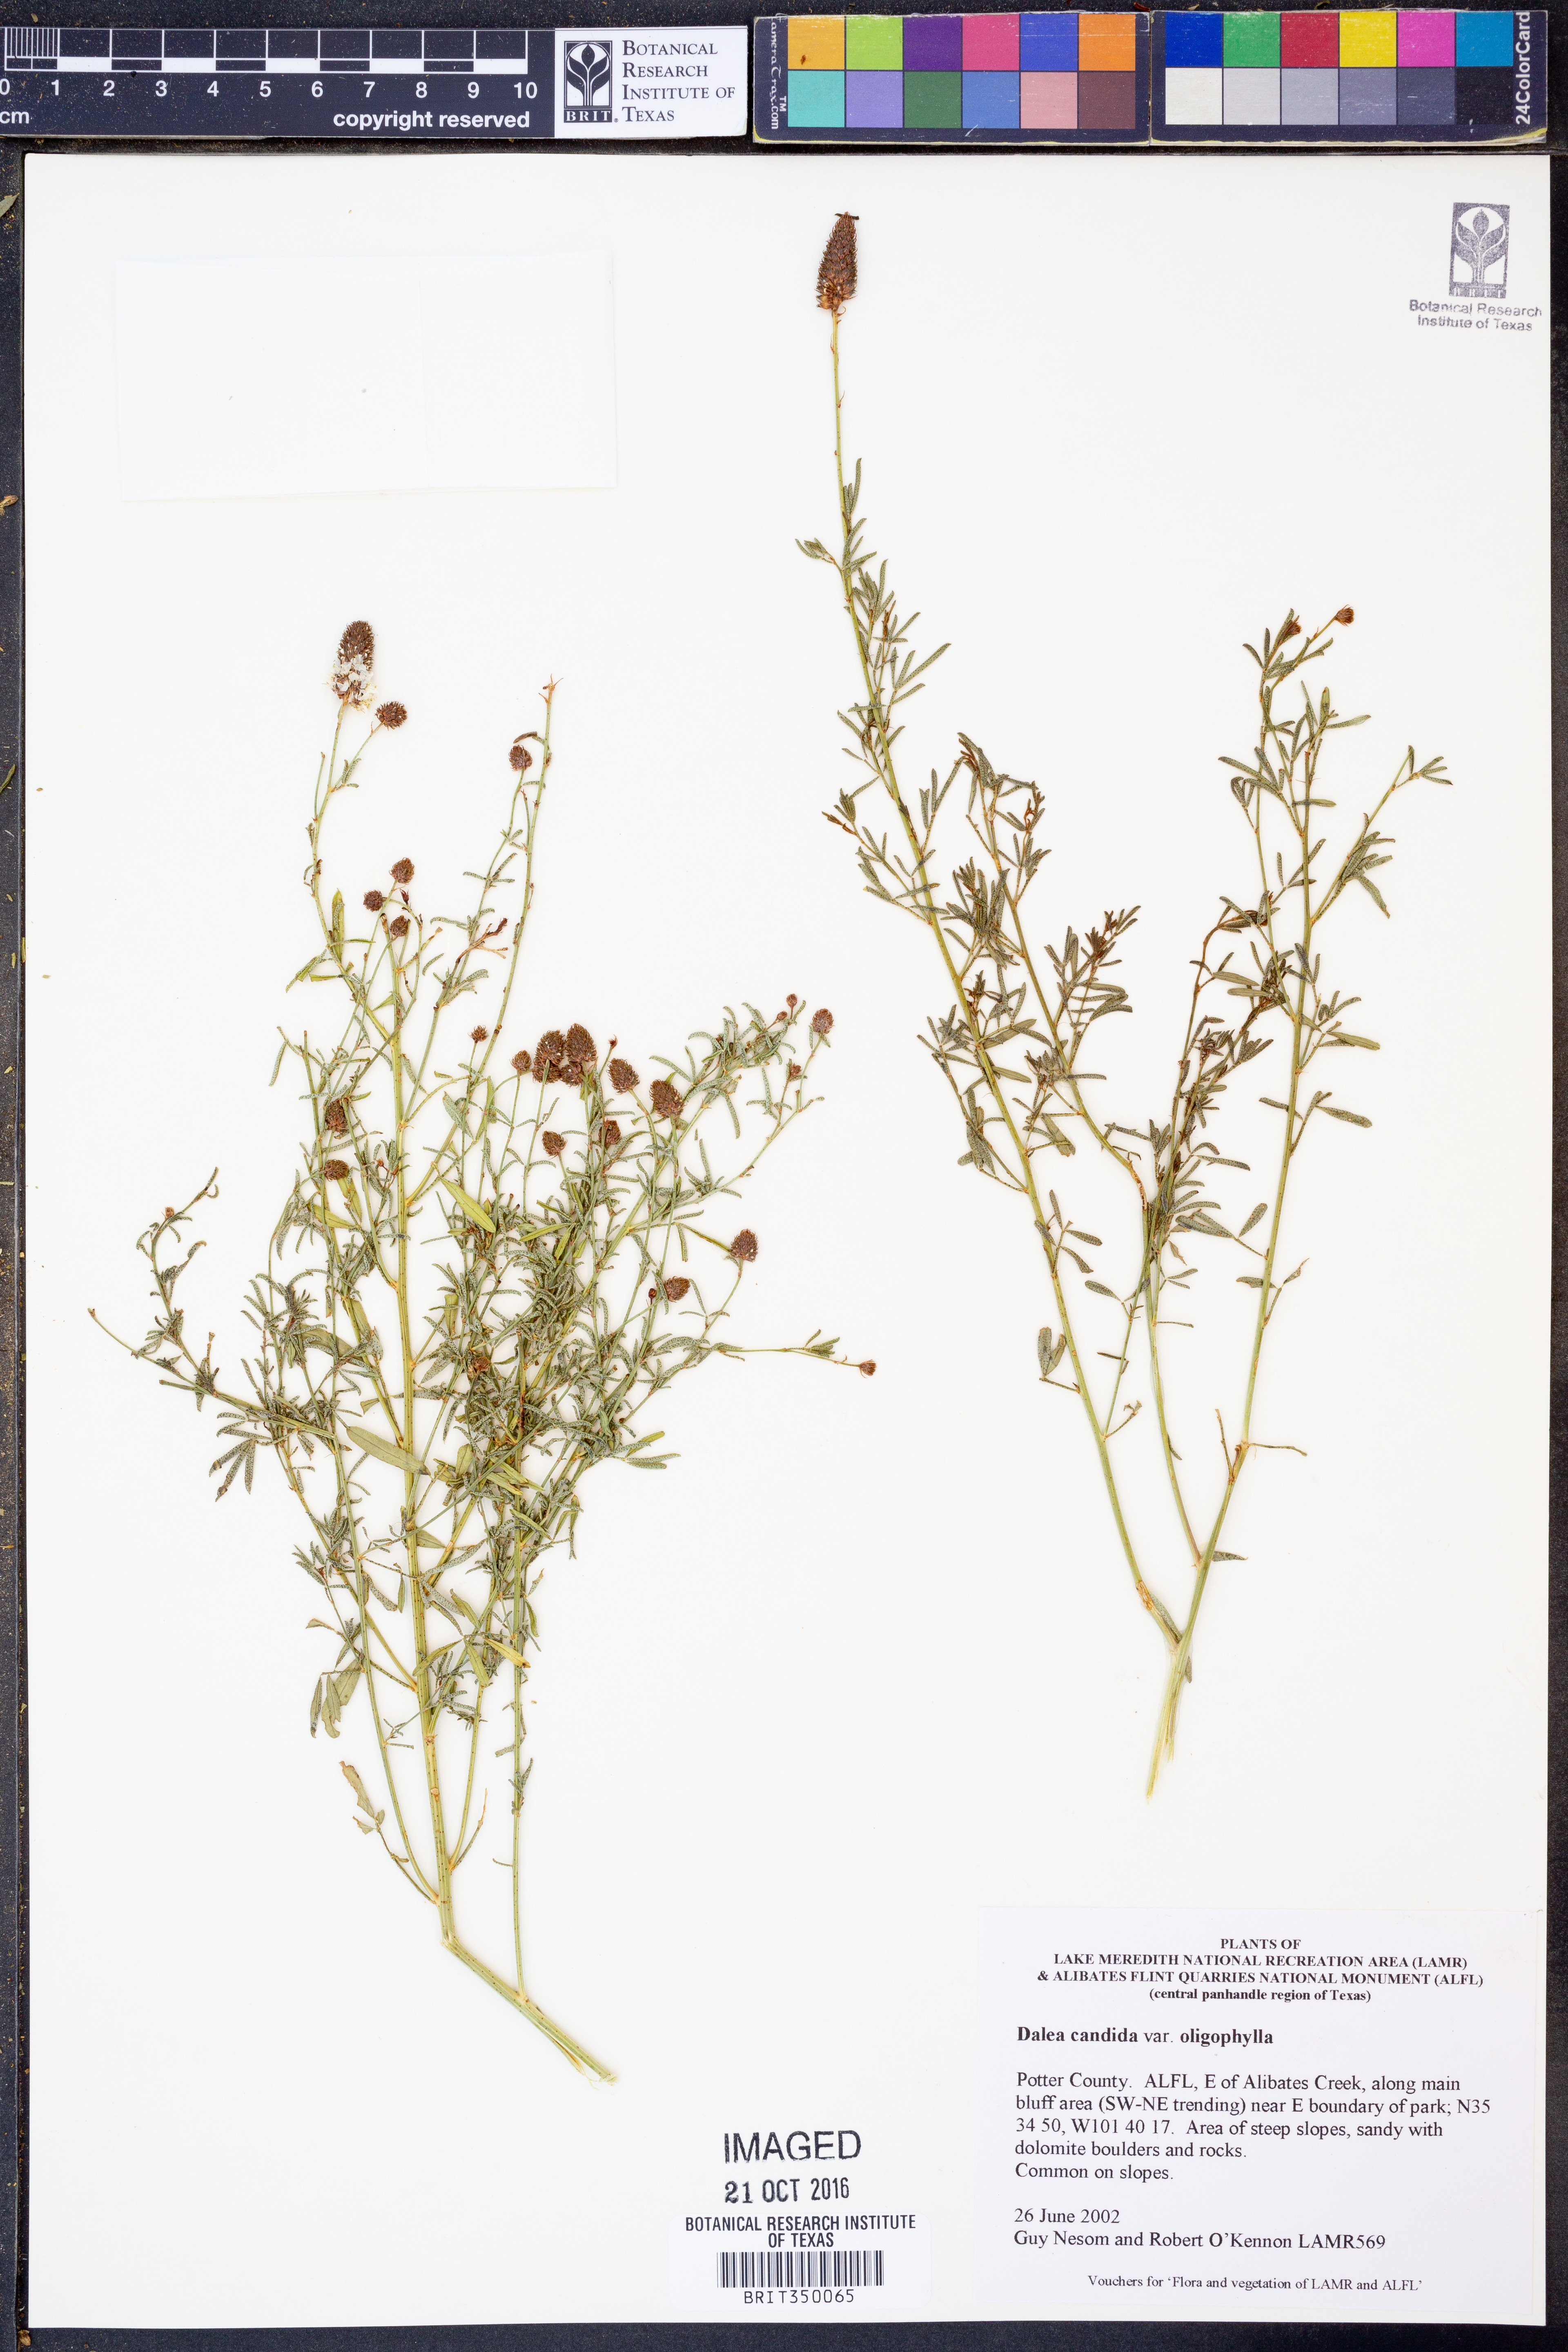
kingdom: Plantae
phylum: Tracheophyta
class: Magnoliopsida
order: Fabales
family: Fabaceae
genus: Dalea
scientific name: Dalea candida
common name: White prairie-clover
